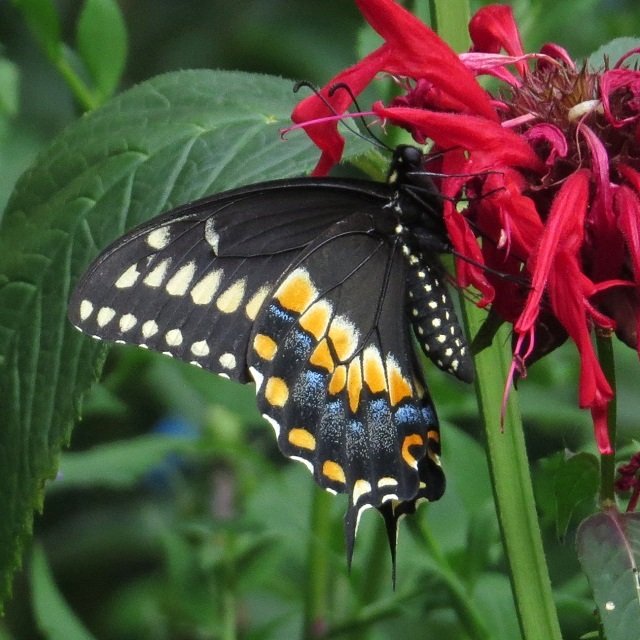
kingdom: Animalia
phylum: Arthropoda
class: Insecta
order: Lepidoptera
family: Papilionidae
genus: Papilio
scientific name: Papilio polyxenes
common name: Black Swallowtail
